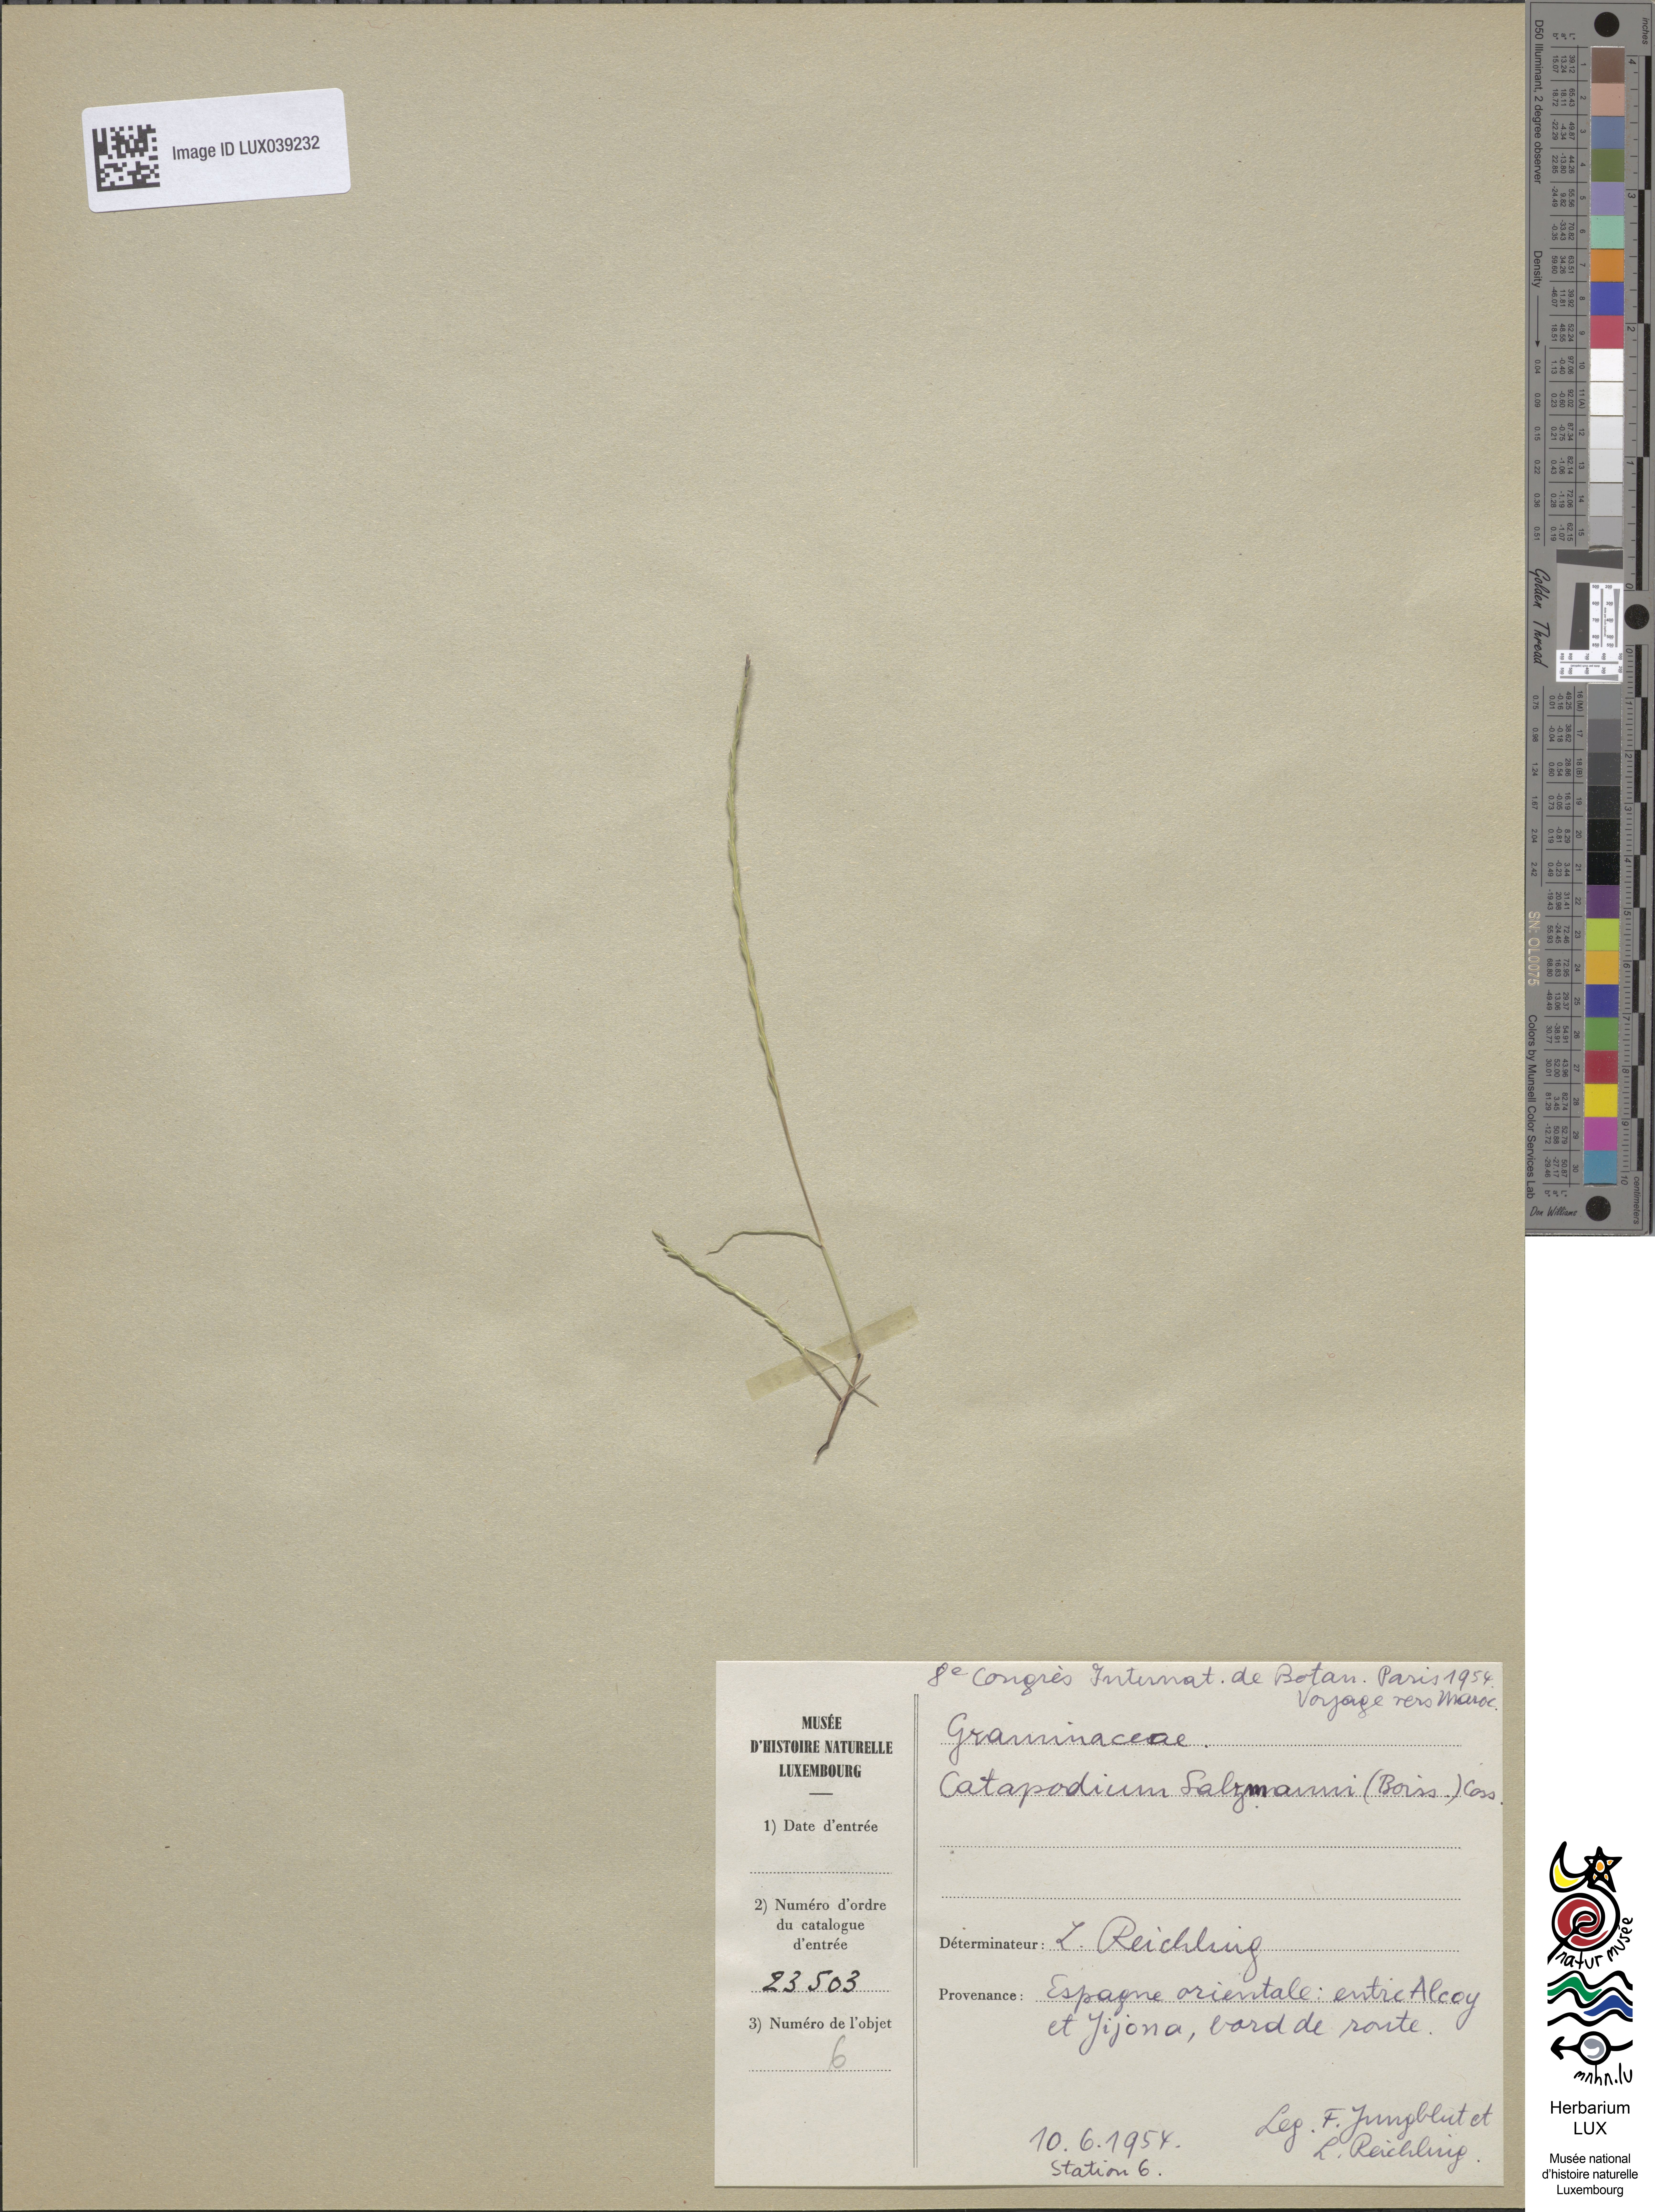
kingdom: Plantae
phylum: Tracheophyta
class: Liliopsida
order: Poales
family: Poaceae
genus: Festuca
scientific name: Festuca salzmannii
